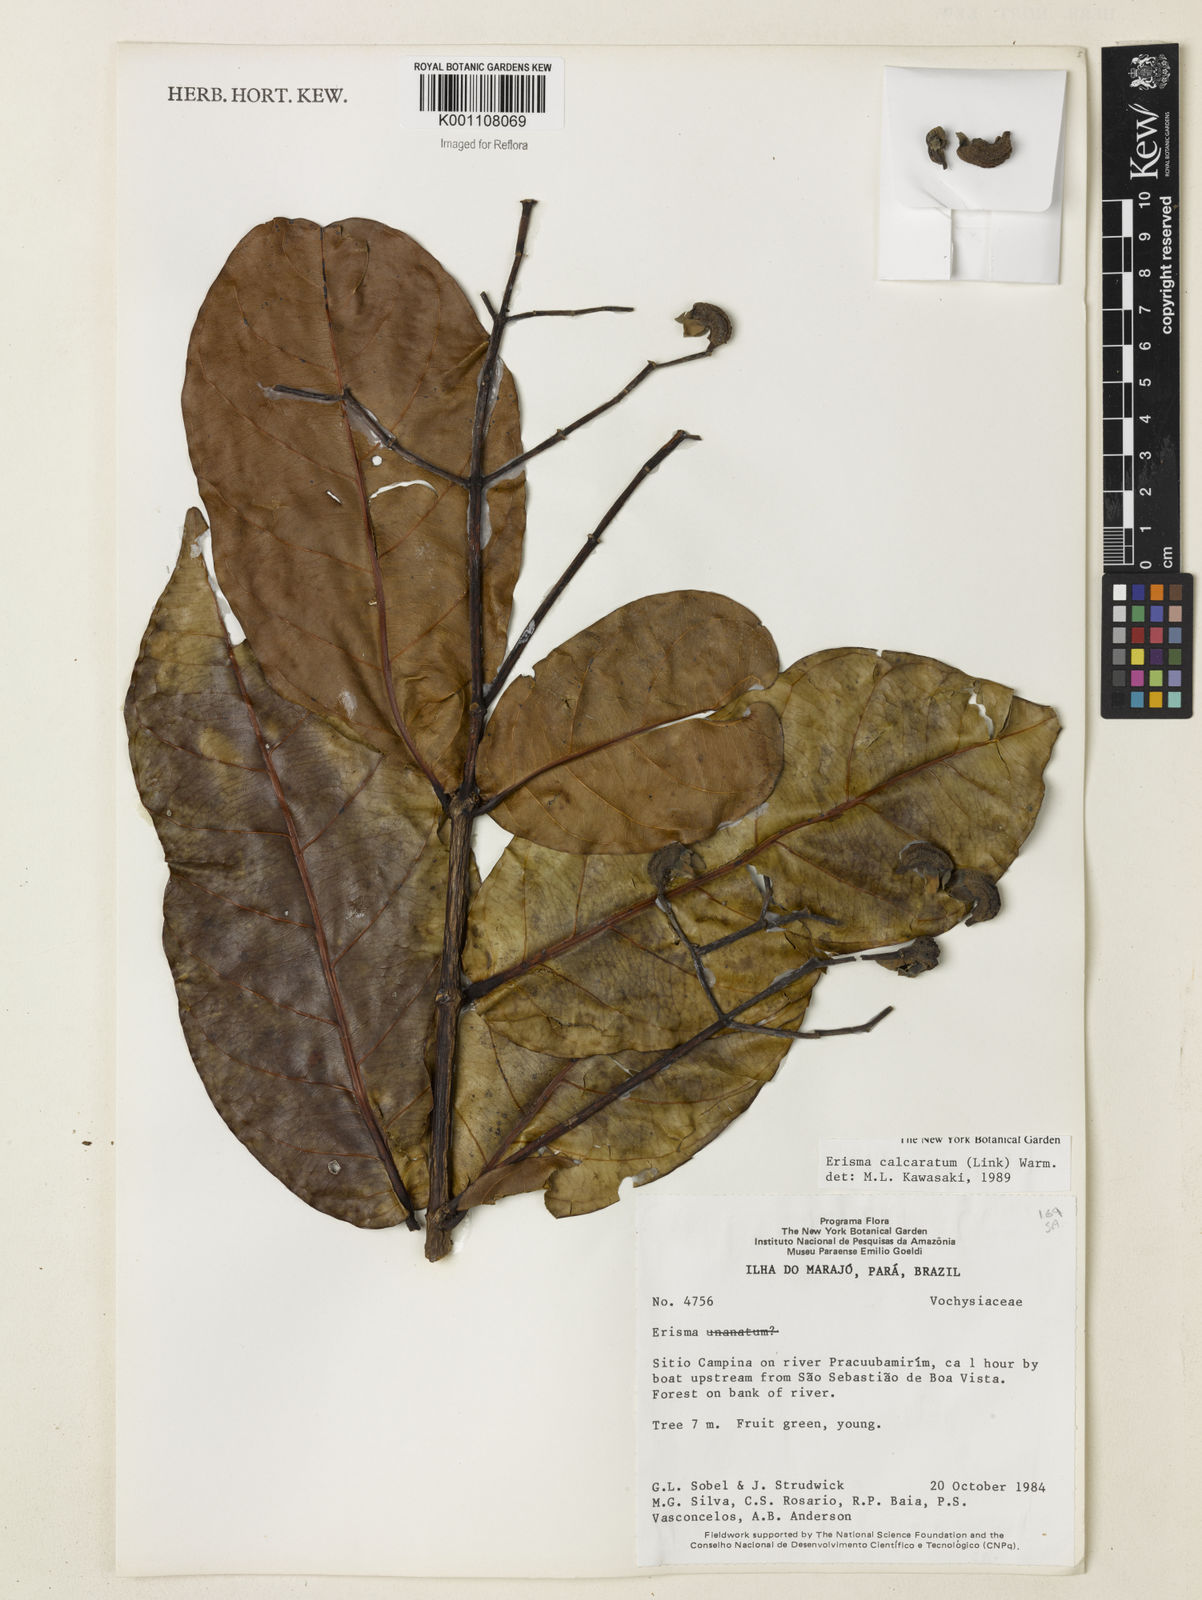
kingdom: Plantae
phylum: Tracheophyta
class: Magnoliopsida
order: Myrtales
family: Vochysiaceae
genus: Erisma
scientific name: Erisma calcaratum
